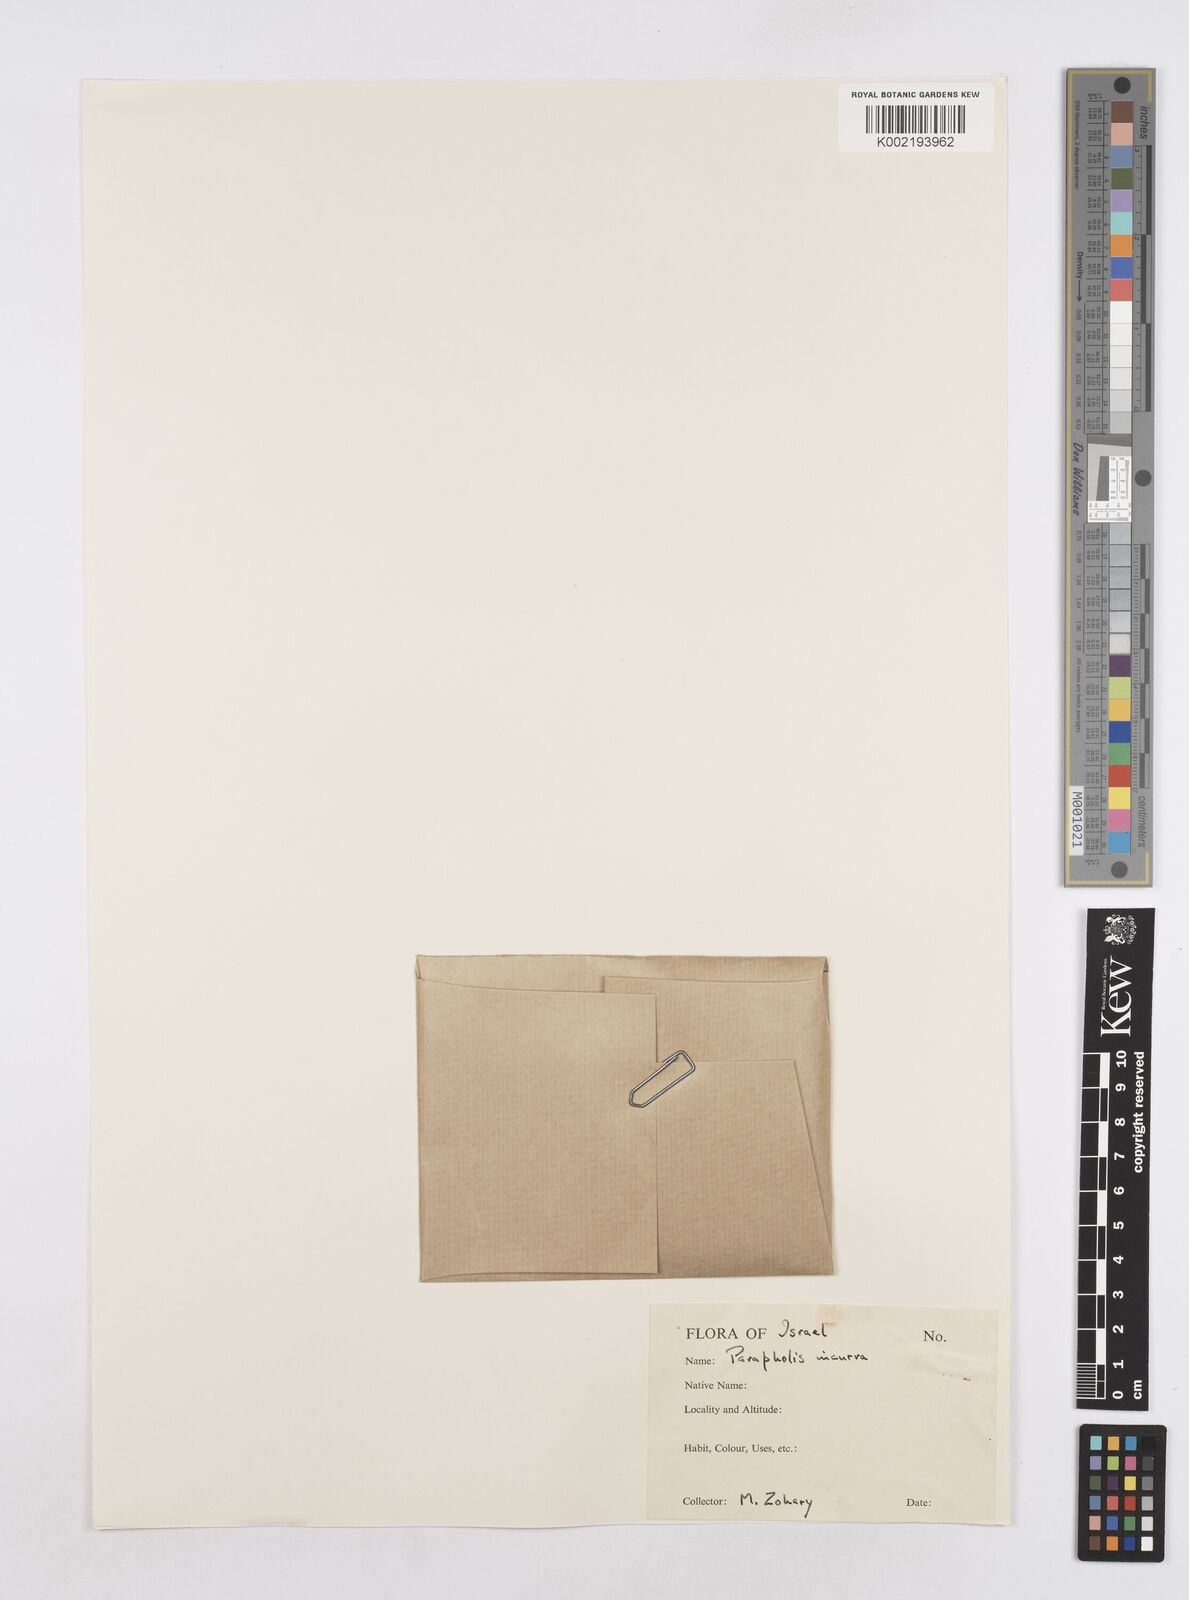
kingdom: Plantae
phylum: Tracheophyta
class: Liliopsida
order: Poales
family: Poaceae
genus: Parapholis
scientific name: Parapholis incurva
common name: Curved sicklegrass
